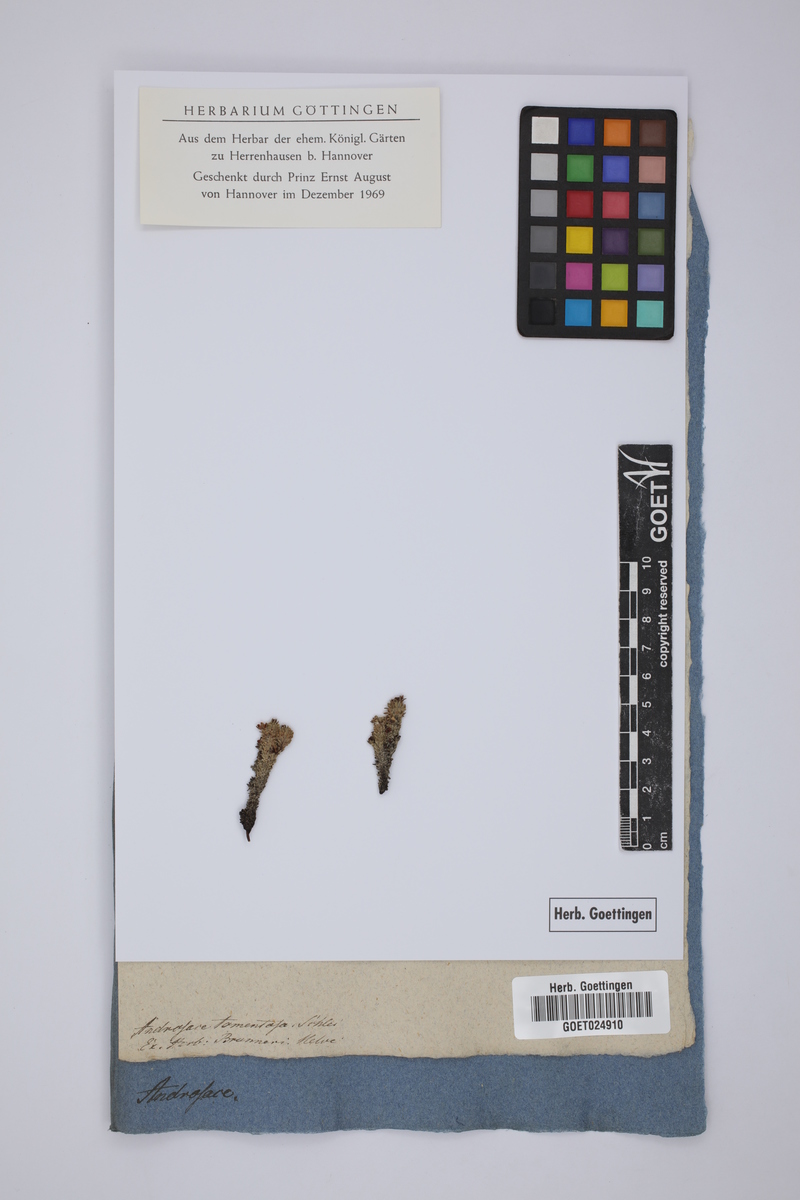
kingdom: Plantae
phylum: Tracheophyta
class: Magnoliopsida
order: Ericales
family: Primulaceae
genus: Androsace
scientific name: Androsace helvetica
